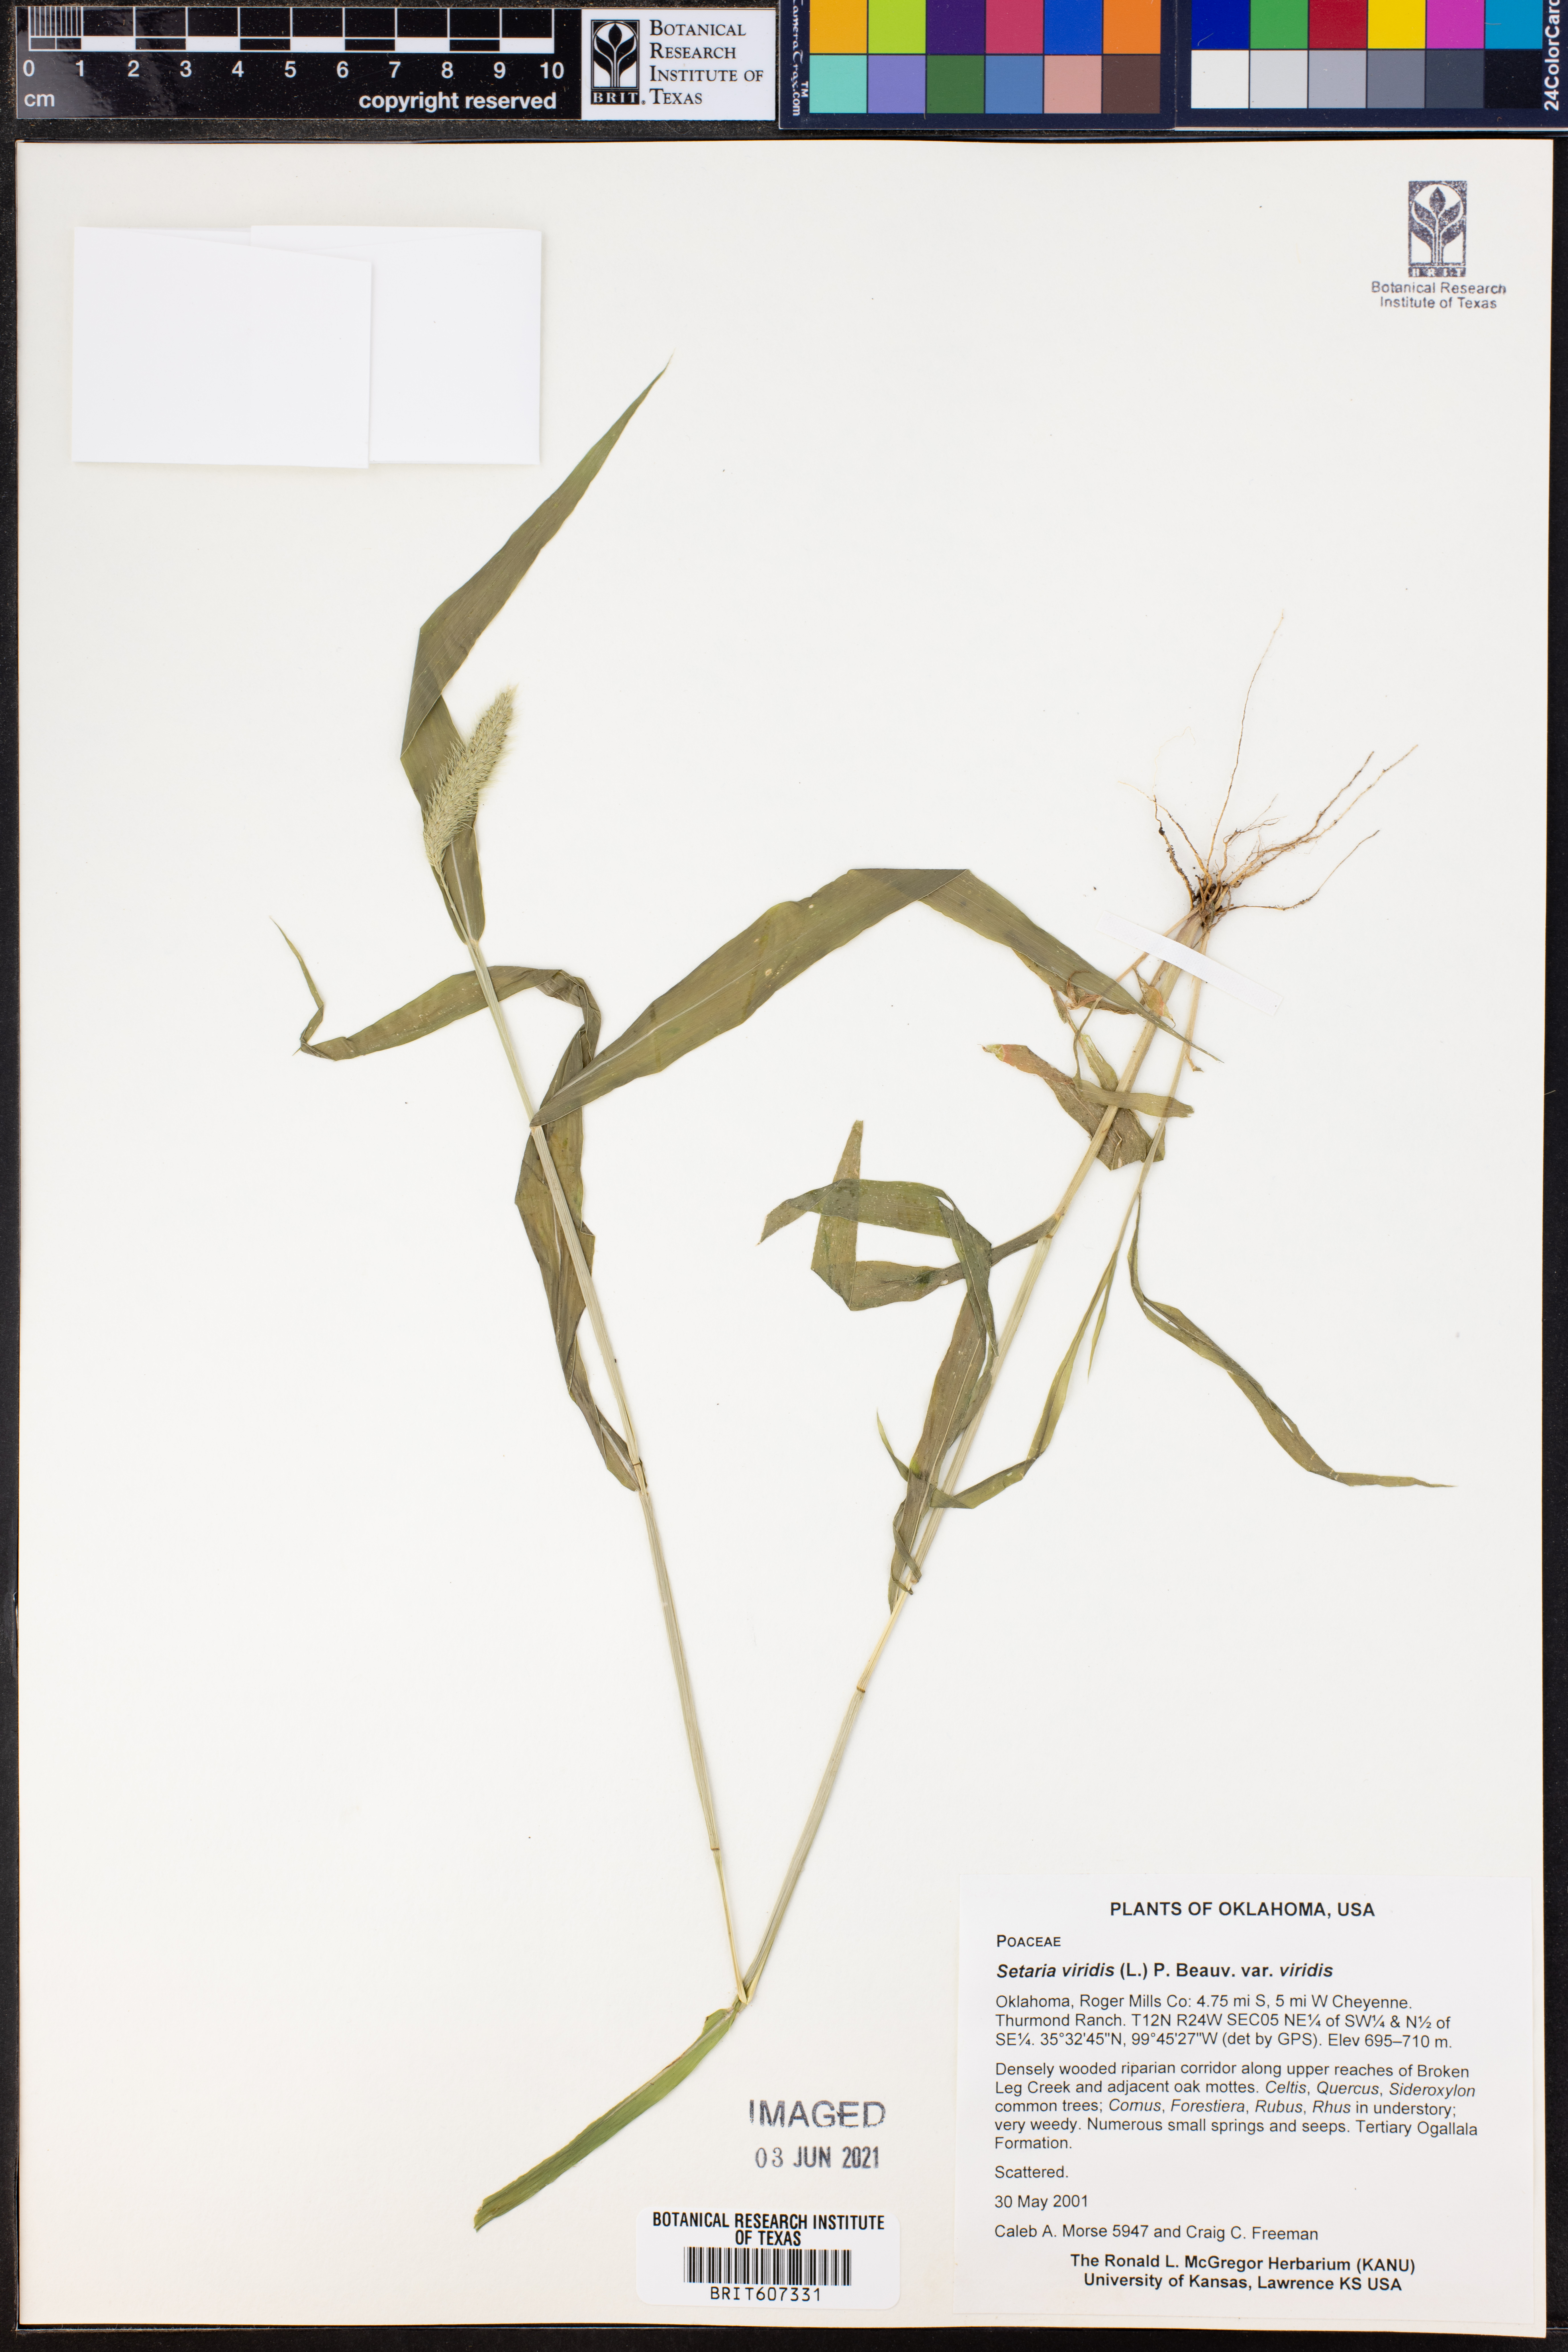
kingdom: Plantae
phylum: Tracheophyta
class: Liliopsida
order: Poales
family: Poaceae
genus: Setaria
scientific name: Setaria viridis
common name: Green bristlegrass
